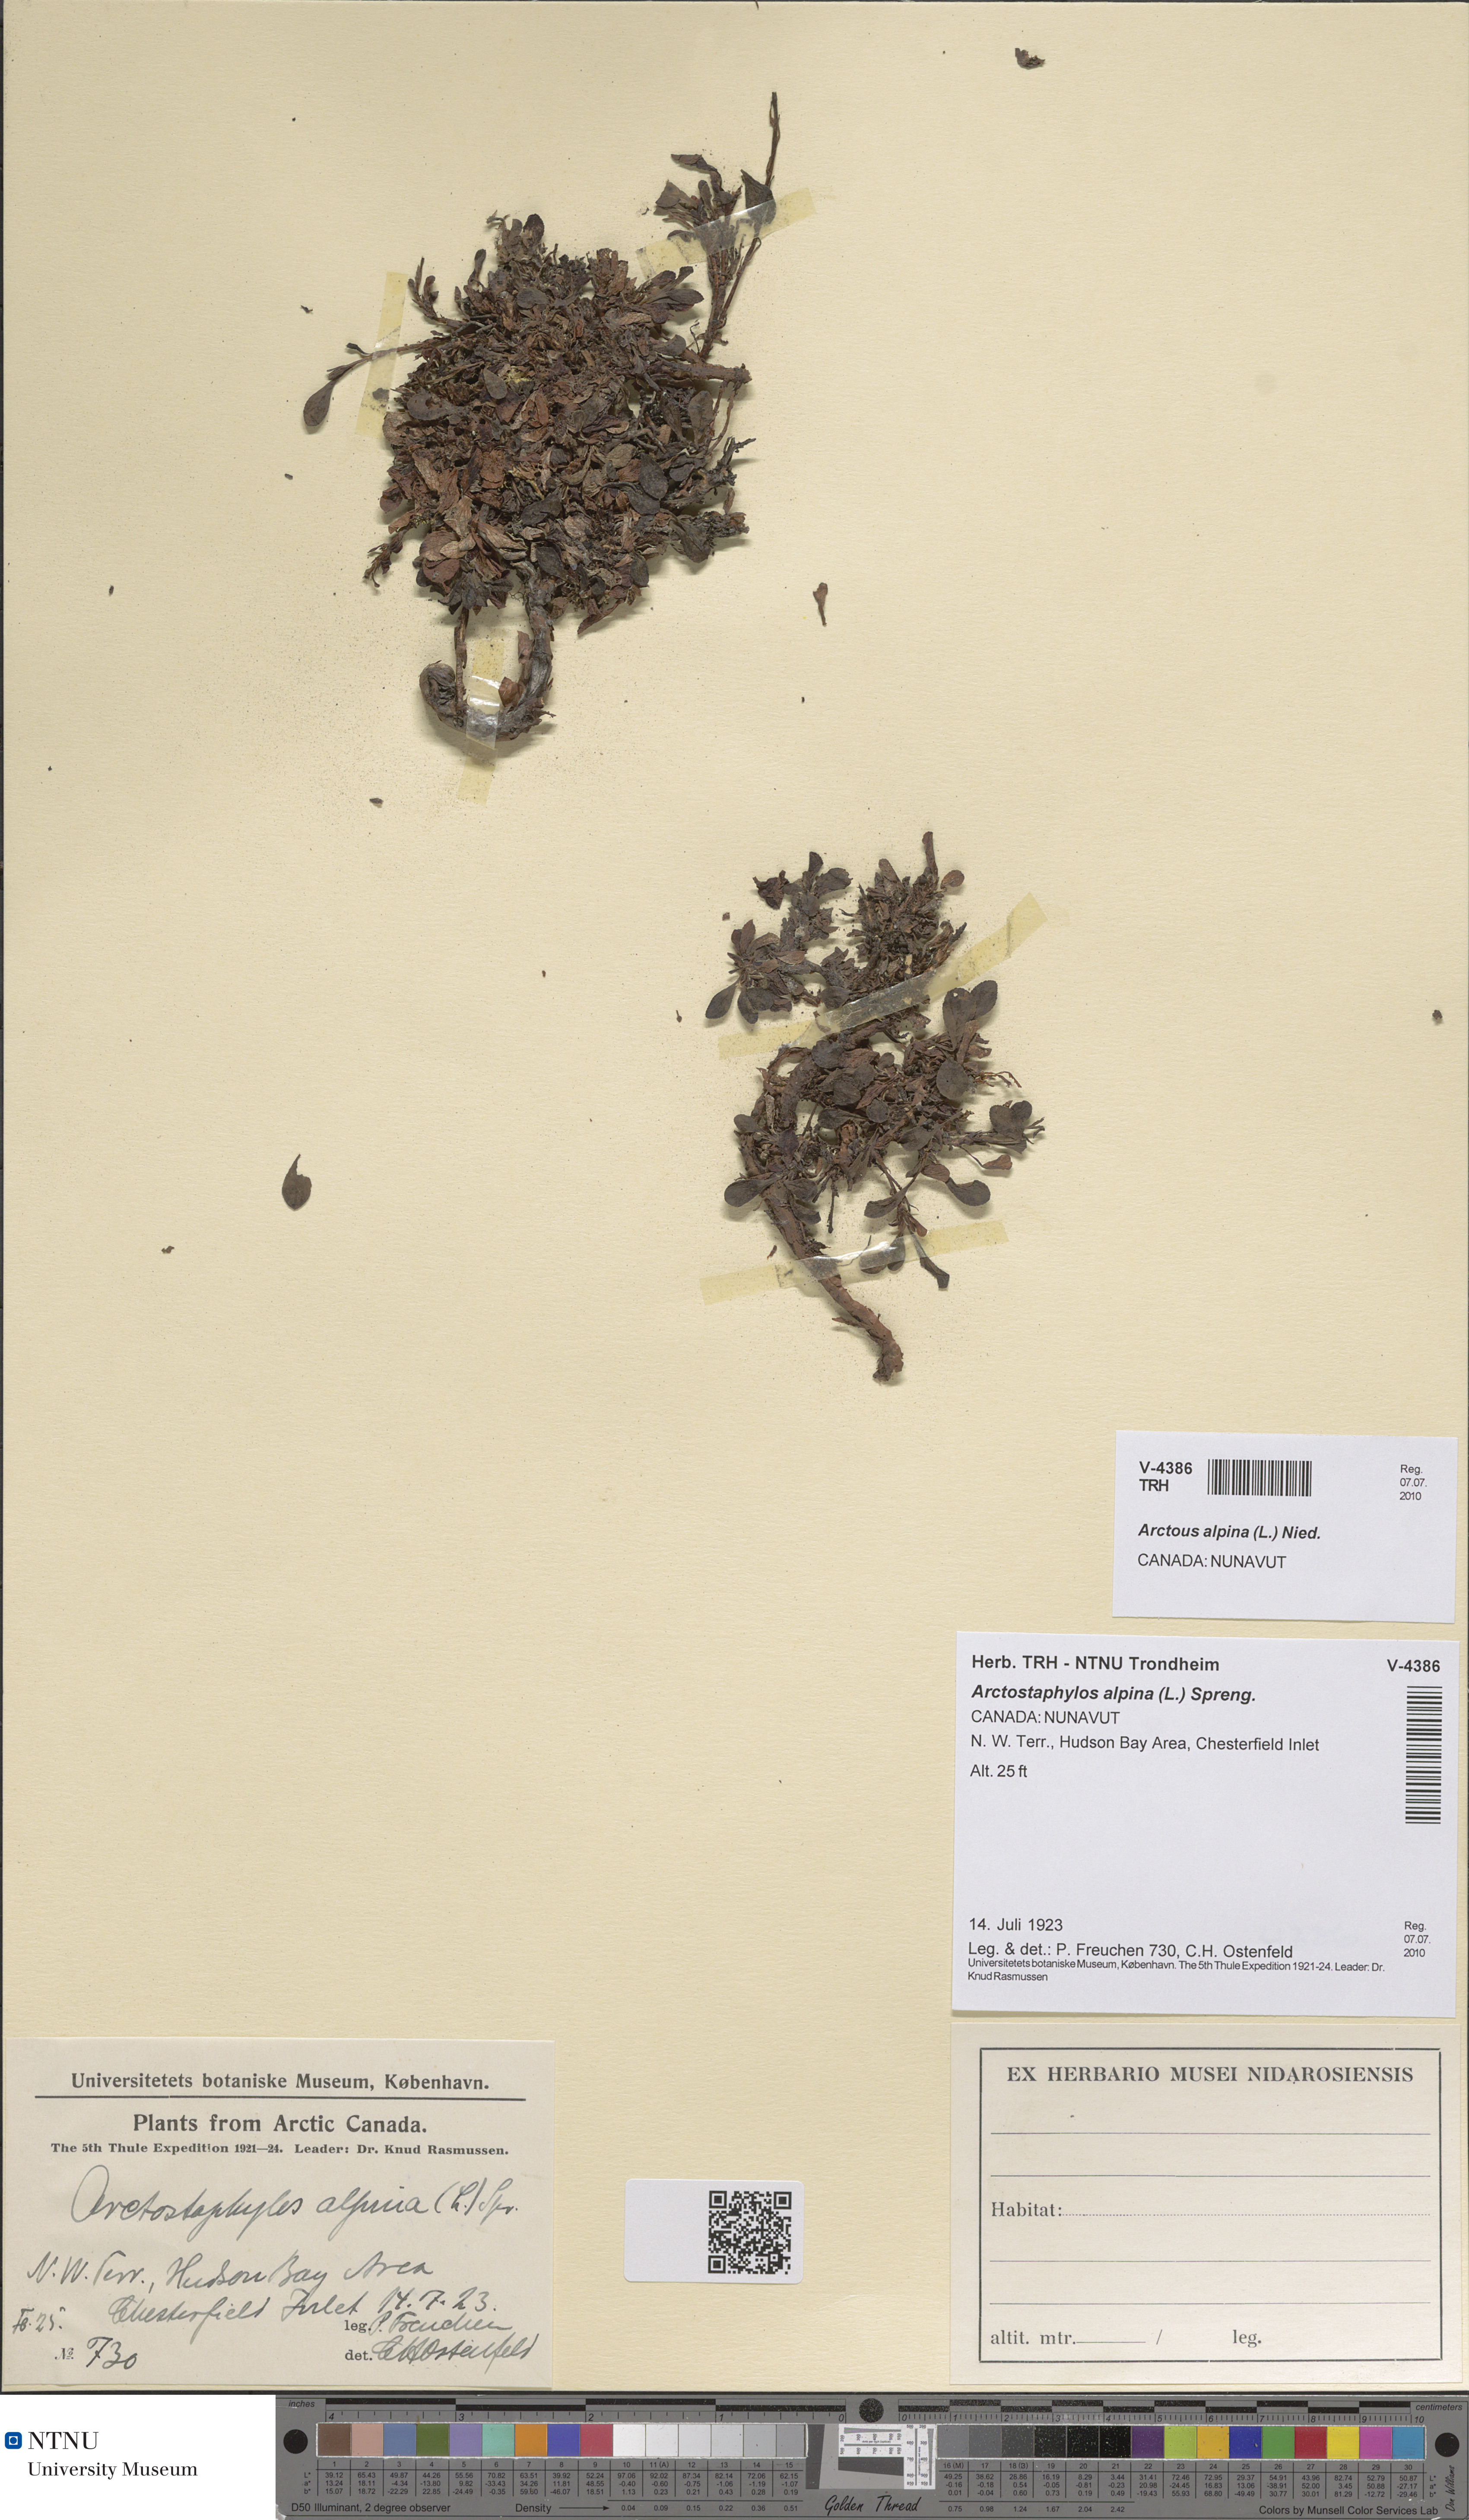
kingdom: Plantae
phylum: Tracheophyta
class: Magnoliopsida
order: Ericales
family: Ericaceae
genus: Arctostaphylos
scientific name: Arctostaphylos alpinus
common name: Alpine bearberry
